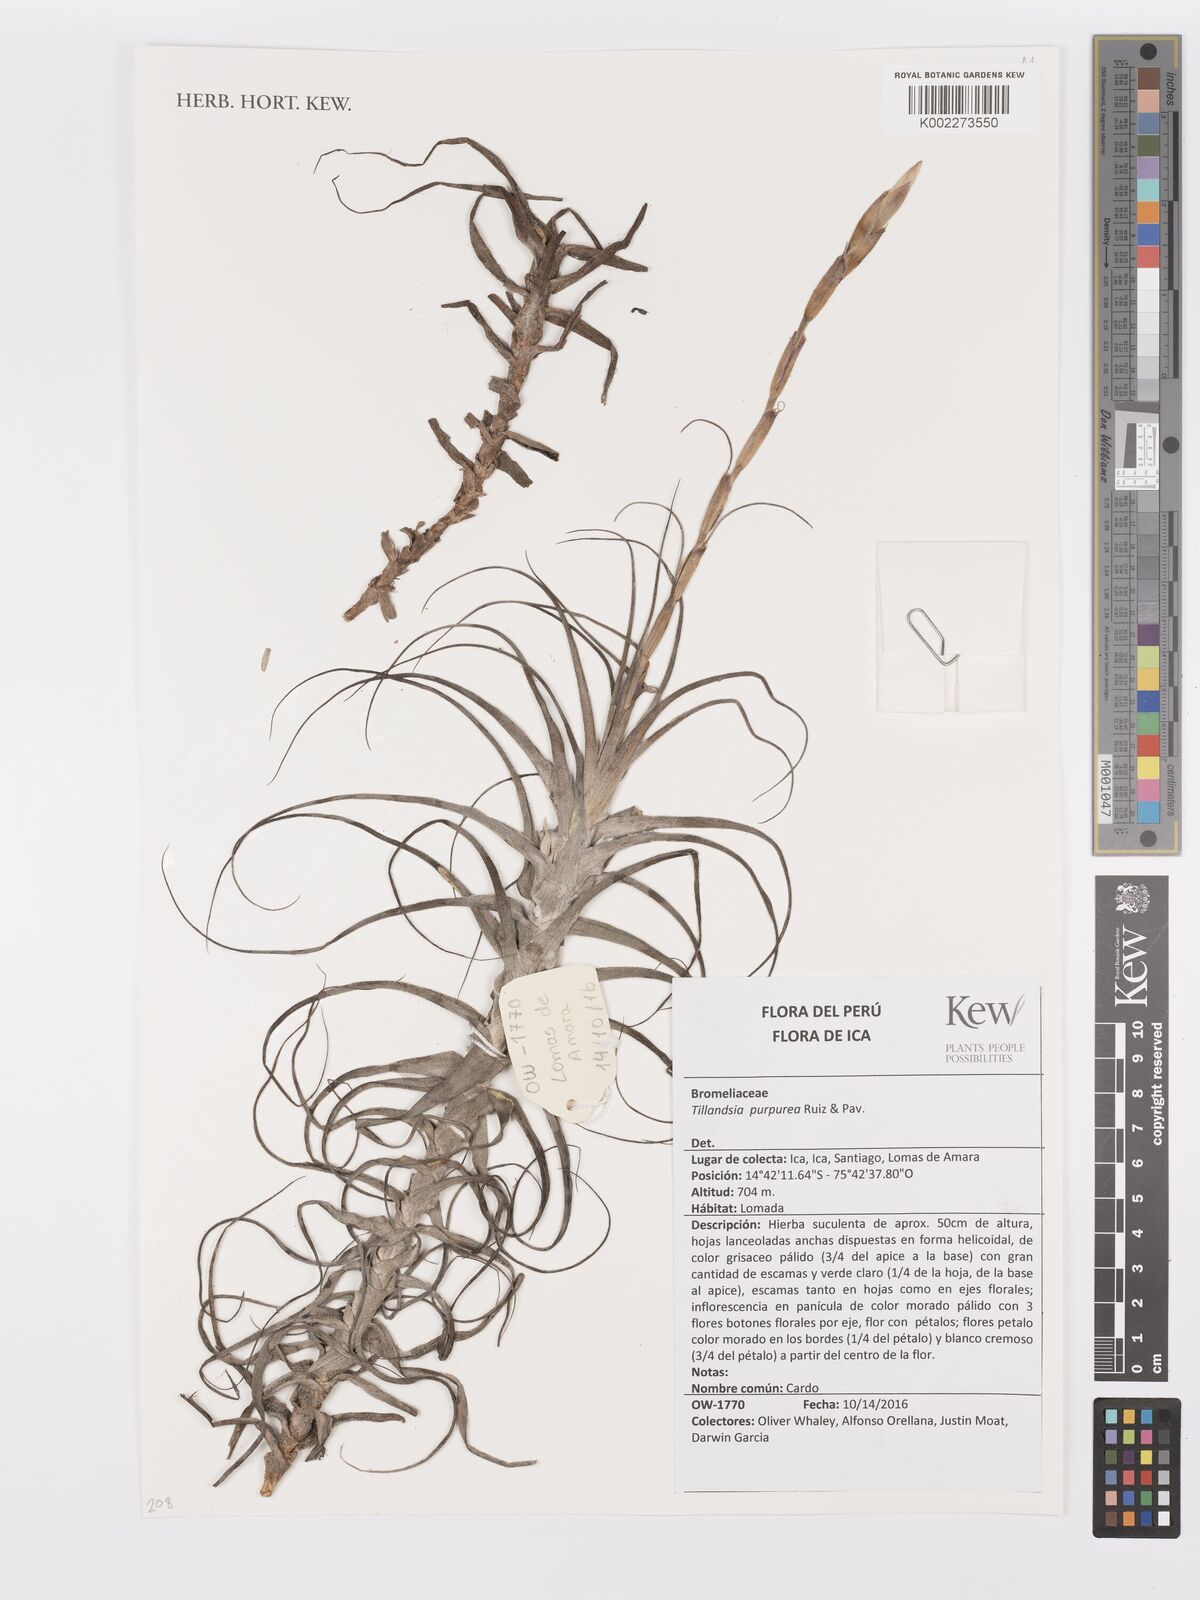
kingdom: Plantae
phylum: Tracheophyta
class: Liliopsida
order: Poales
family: Bromeliaceae
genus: Tillandsia
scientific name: Tillandsia purpurea
